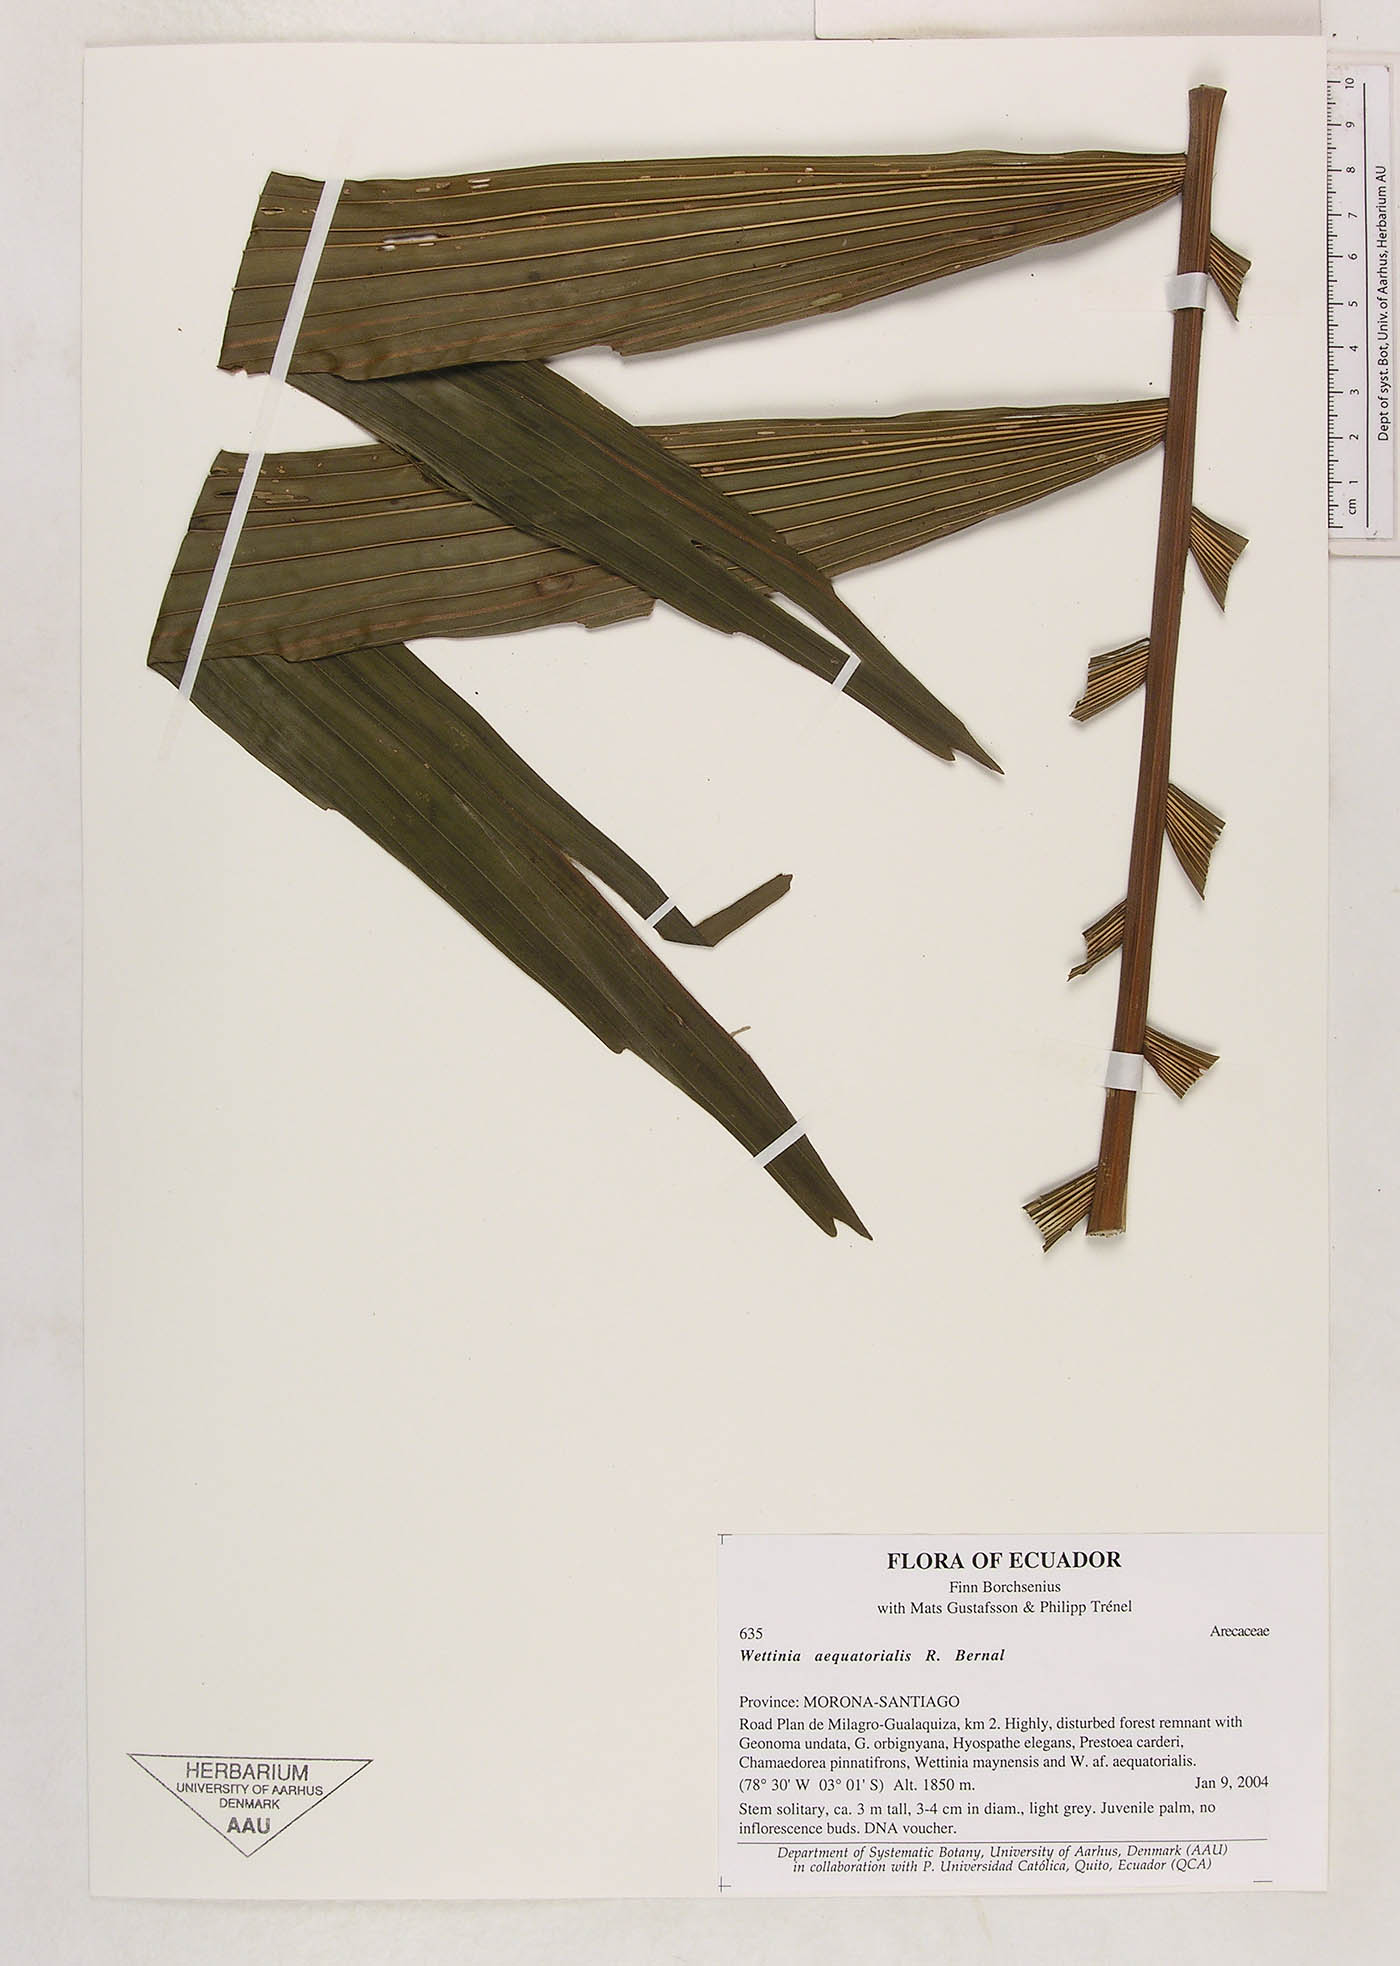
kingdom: Plantae
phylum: Tracheophyta
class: Liliopsida
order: Arecales
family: Arecaceae
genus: Wettinia
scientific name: Wettinia aequatorialis
